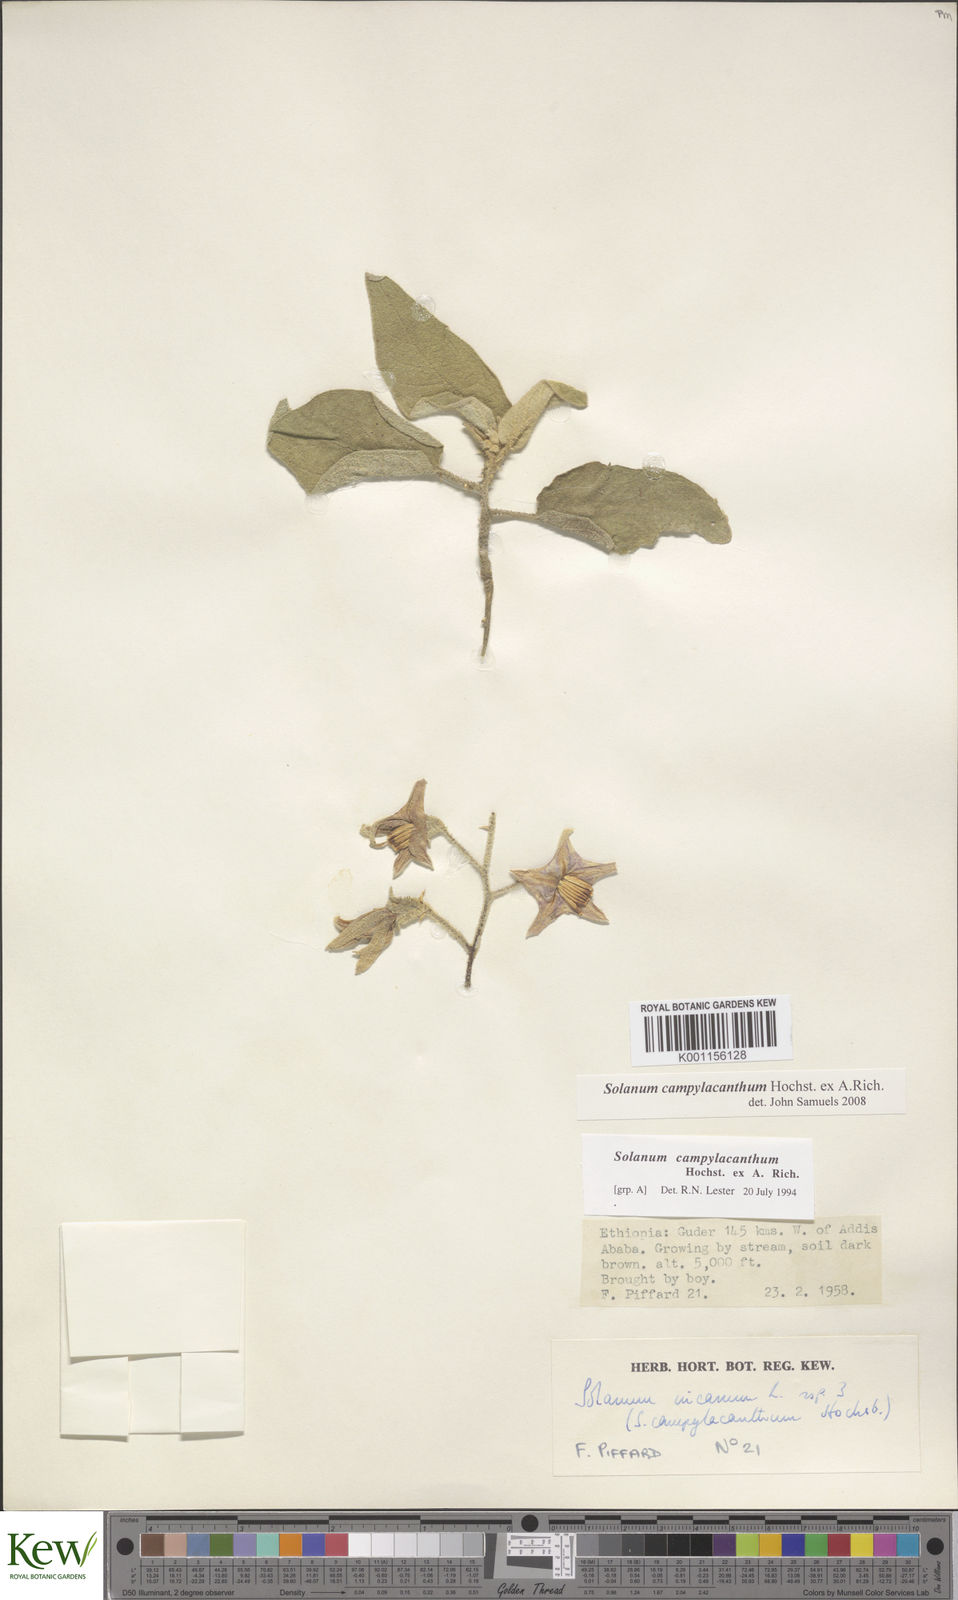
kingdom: Plantae
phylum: Tracheophyta
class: Magnoliopsida
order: Solanales
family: Solanaceae
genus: Solanum
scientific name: Solanum campylacanthum
